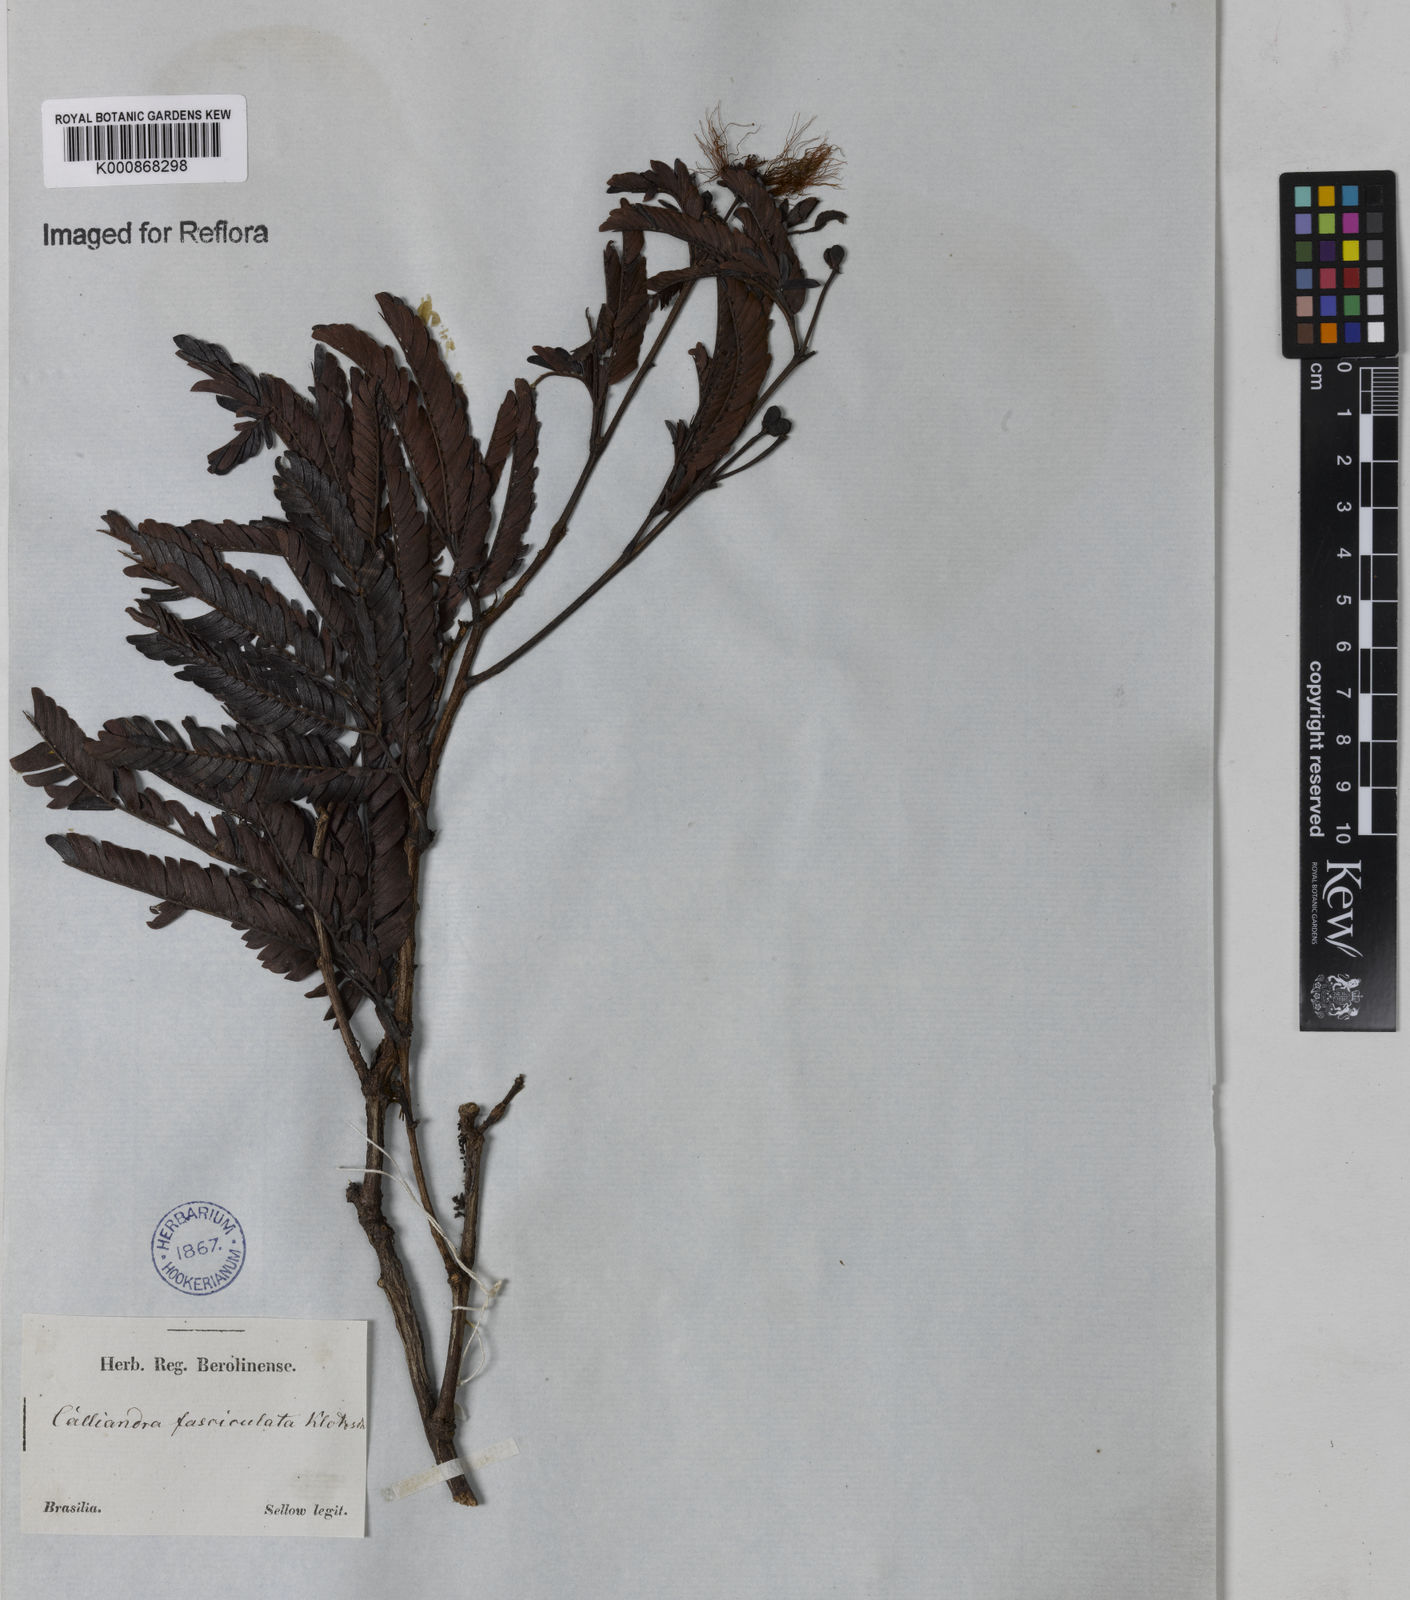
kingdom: Plantae
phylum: Tracheophyta
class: Magnoliopsida
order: Fabales
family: Fabaceae
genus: Calliandra
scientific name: Calliandra fasciculata
